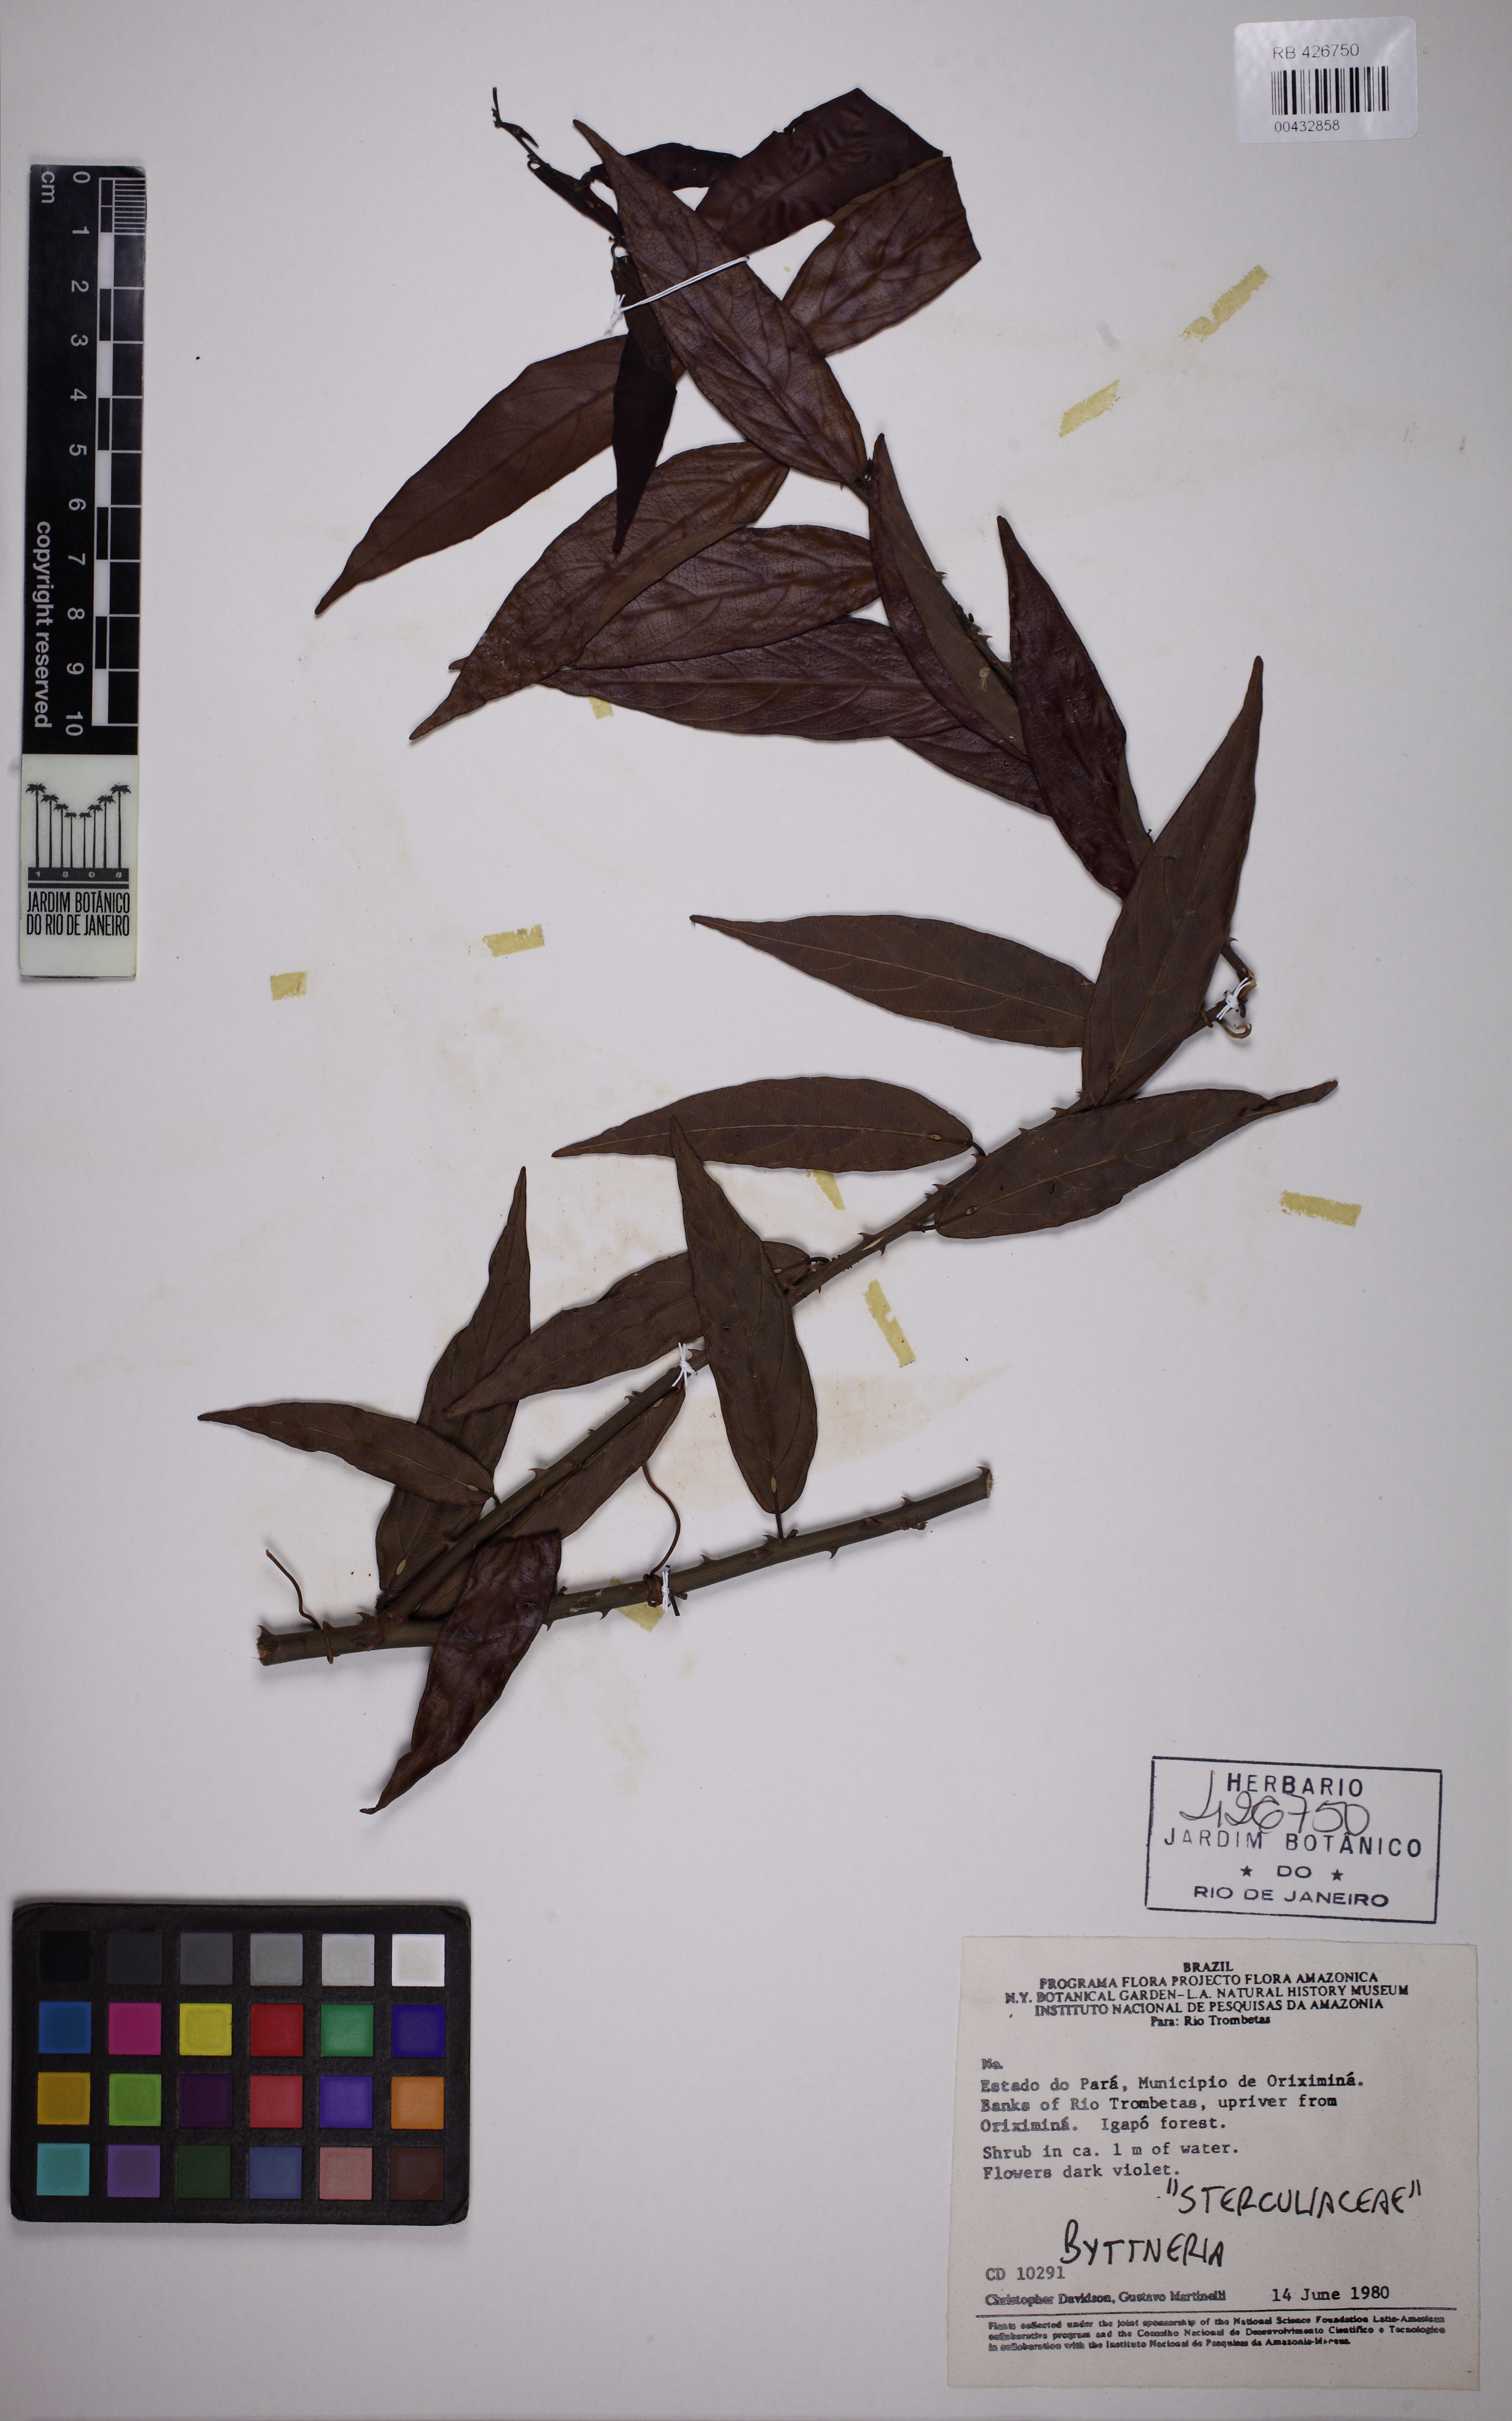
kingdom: Plantae
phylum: Tracheophyta
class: Magnoliopsida
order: Malvales
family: Malvaceae
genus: Byttneria
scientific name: Byttneria
